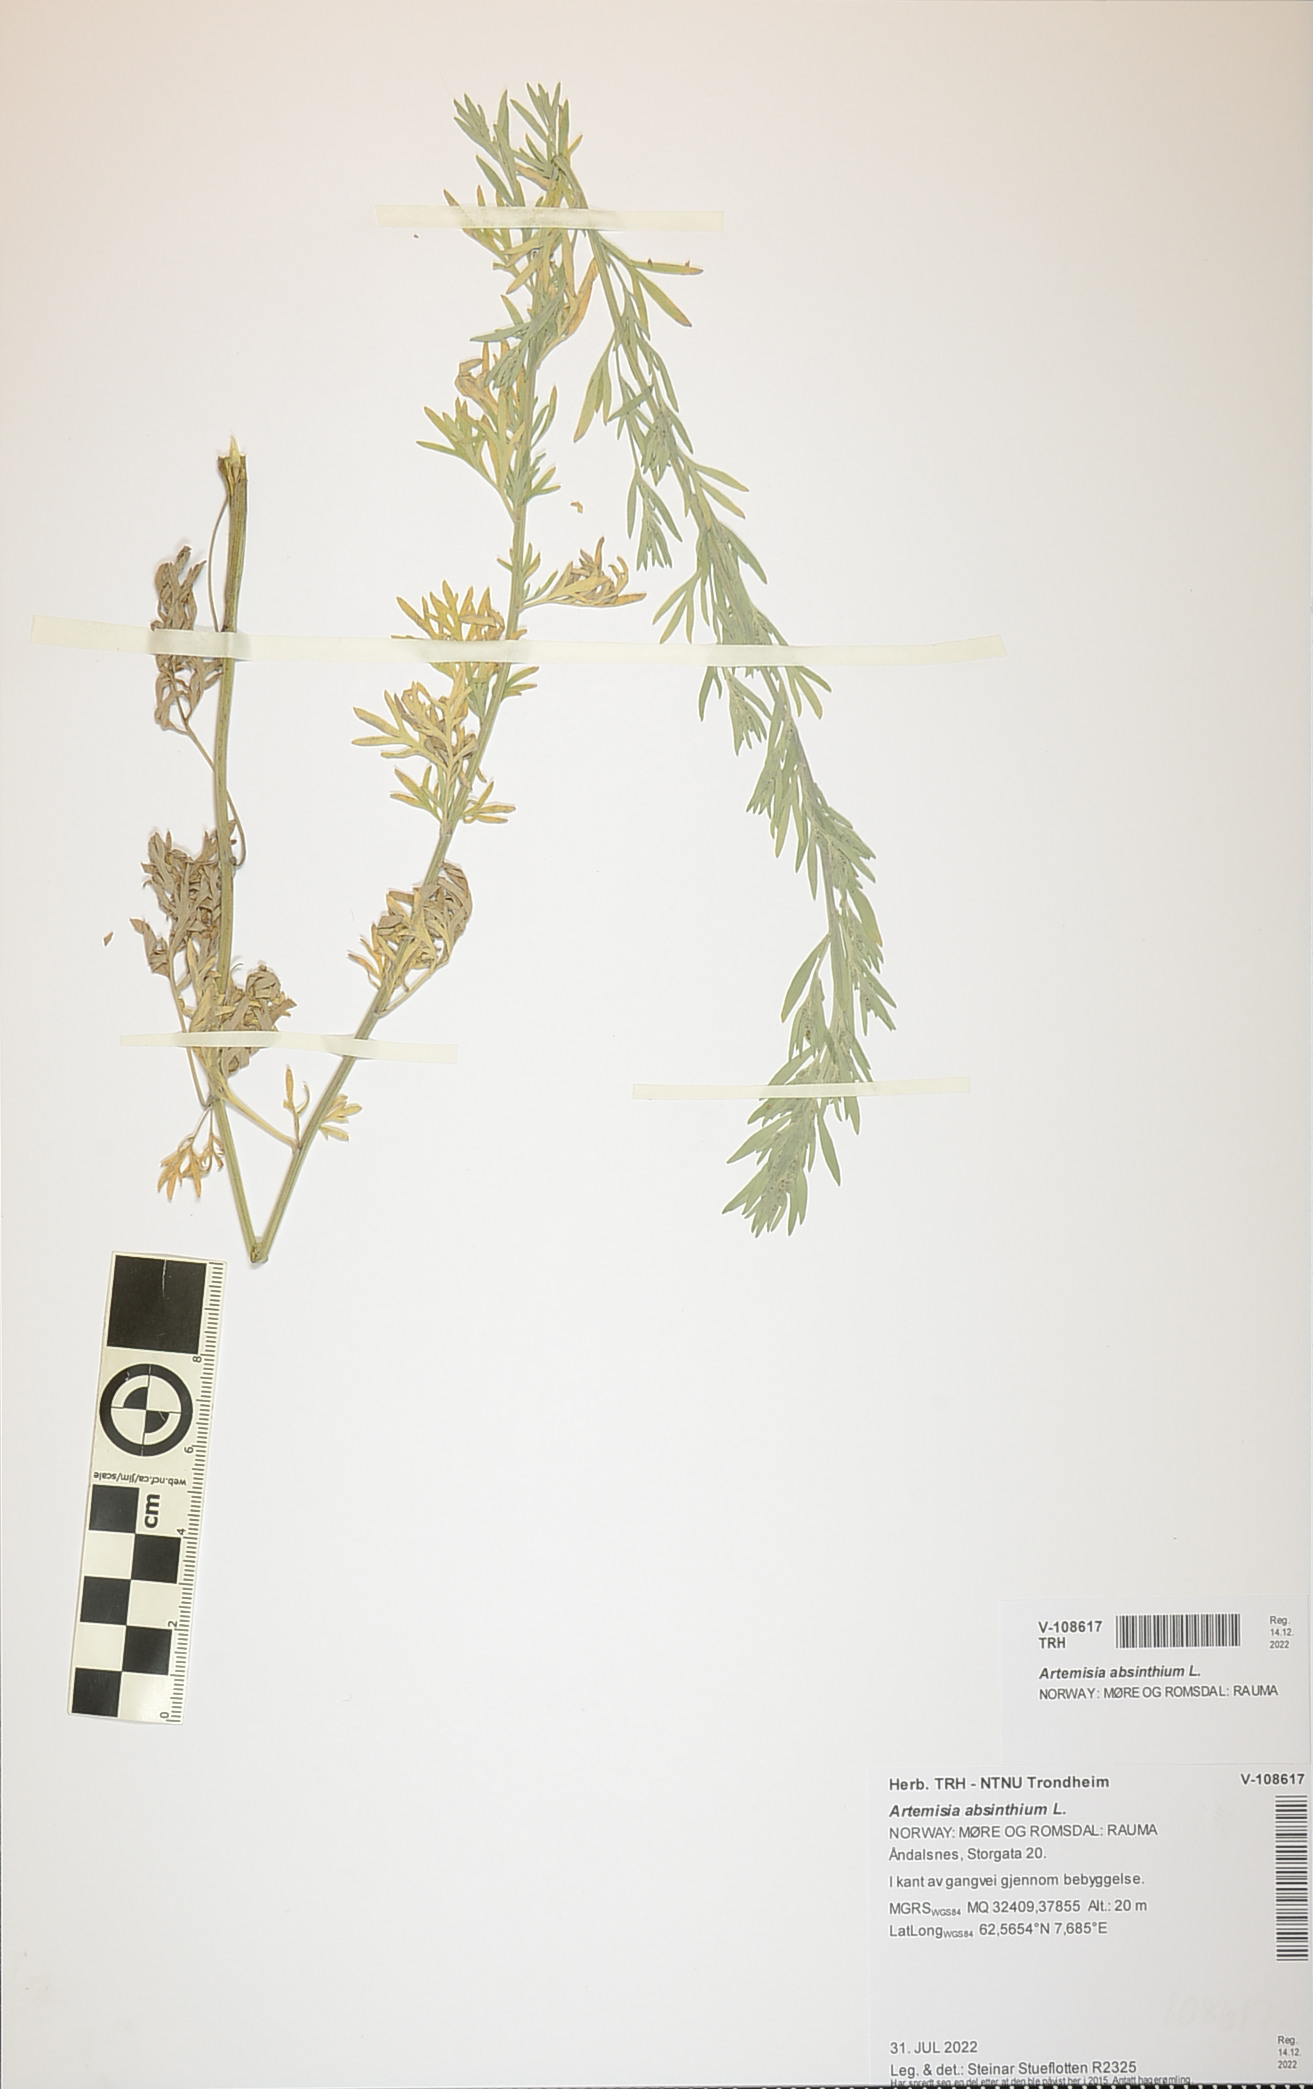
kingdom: Plantae
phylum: Tracheophyta
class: Magnoliopsida
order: Asterales
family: Asteraceae
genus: Artemisia
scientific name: Artemisia absinthium
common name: Wormwood
